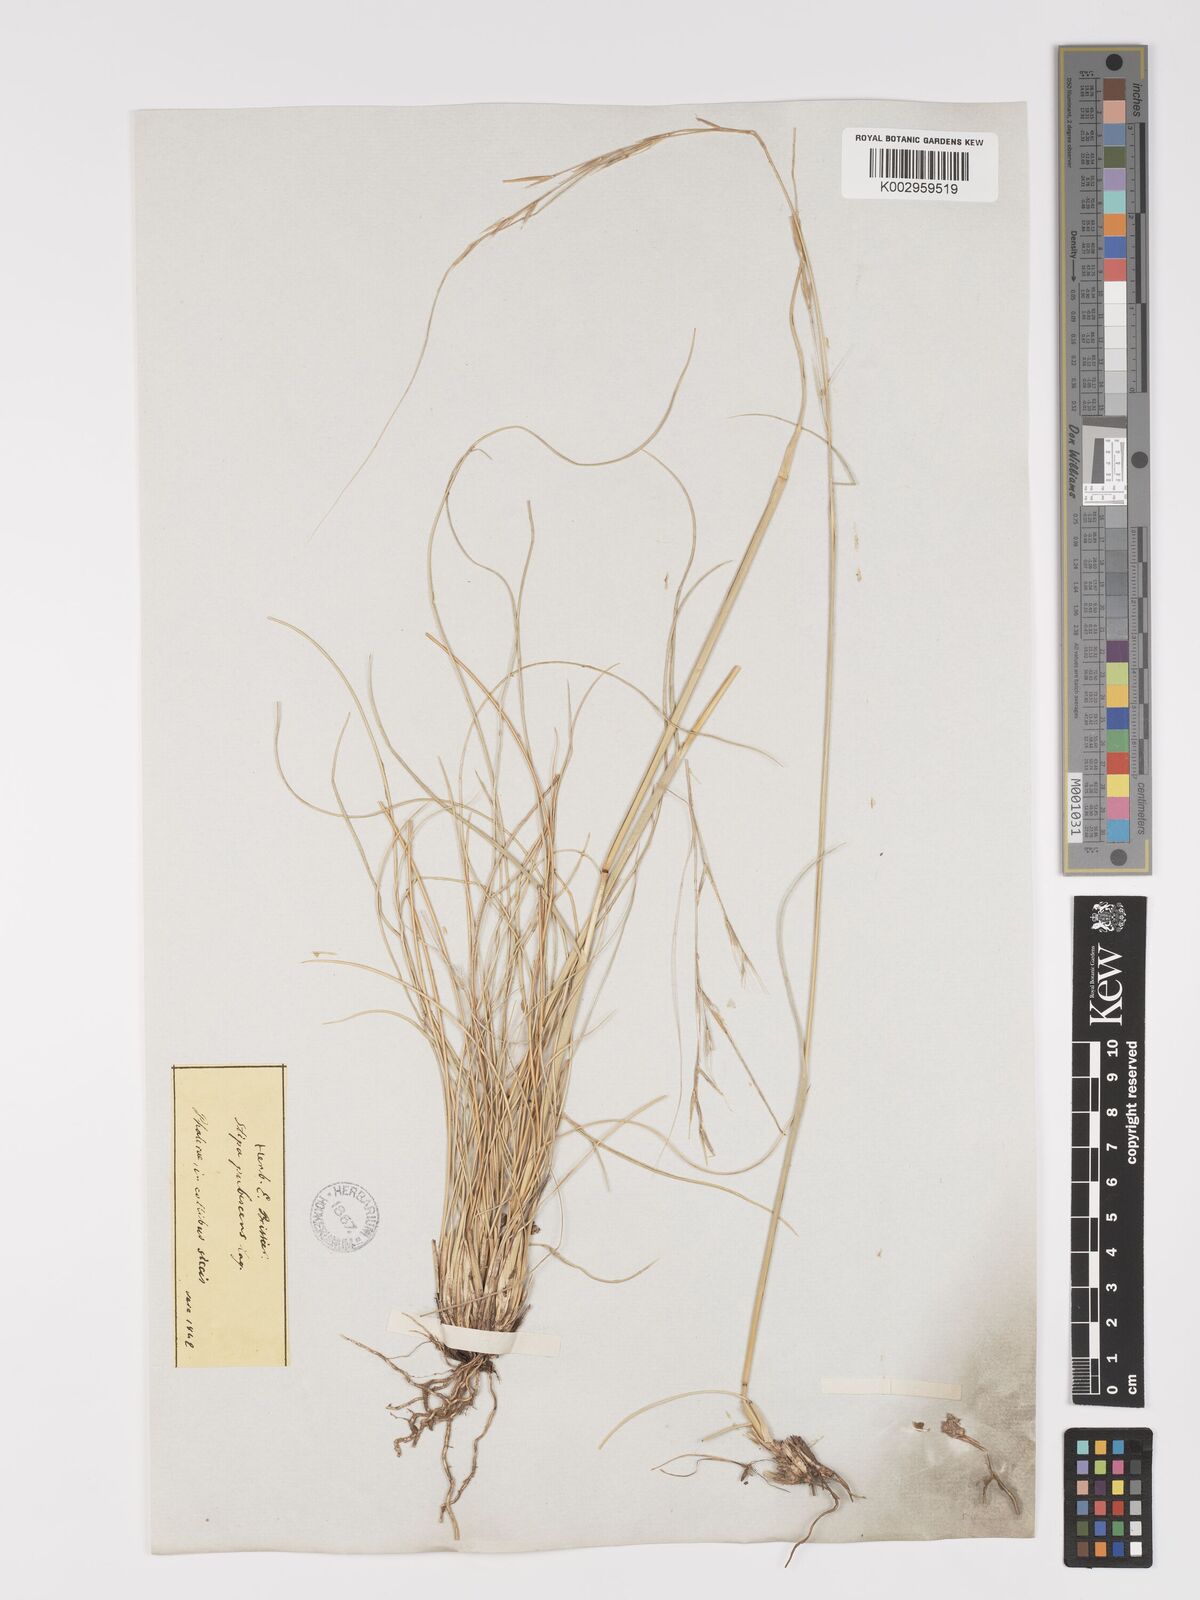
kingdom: Plantae
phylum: Tracheophyta
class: Liliopsida
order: Poales
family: Poaceae
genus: Stipa
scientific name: Stipa holosericea
